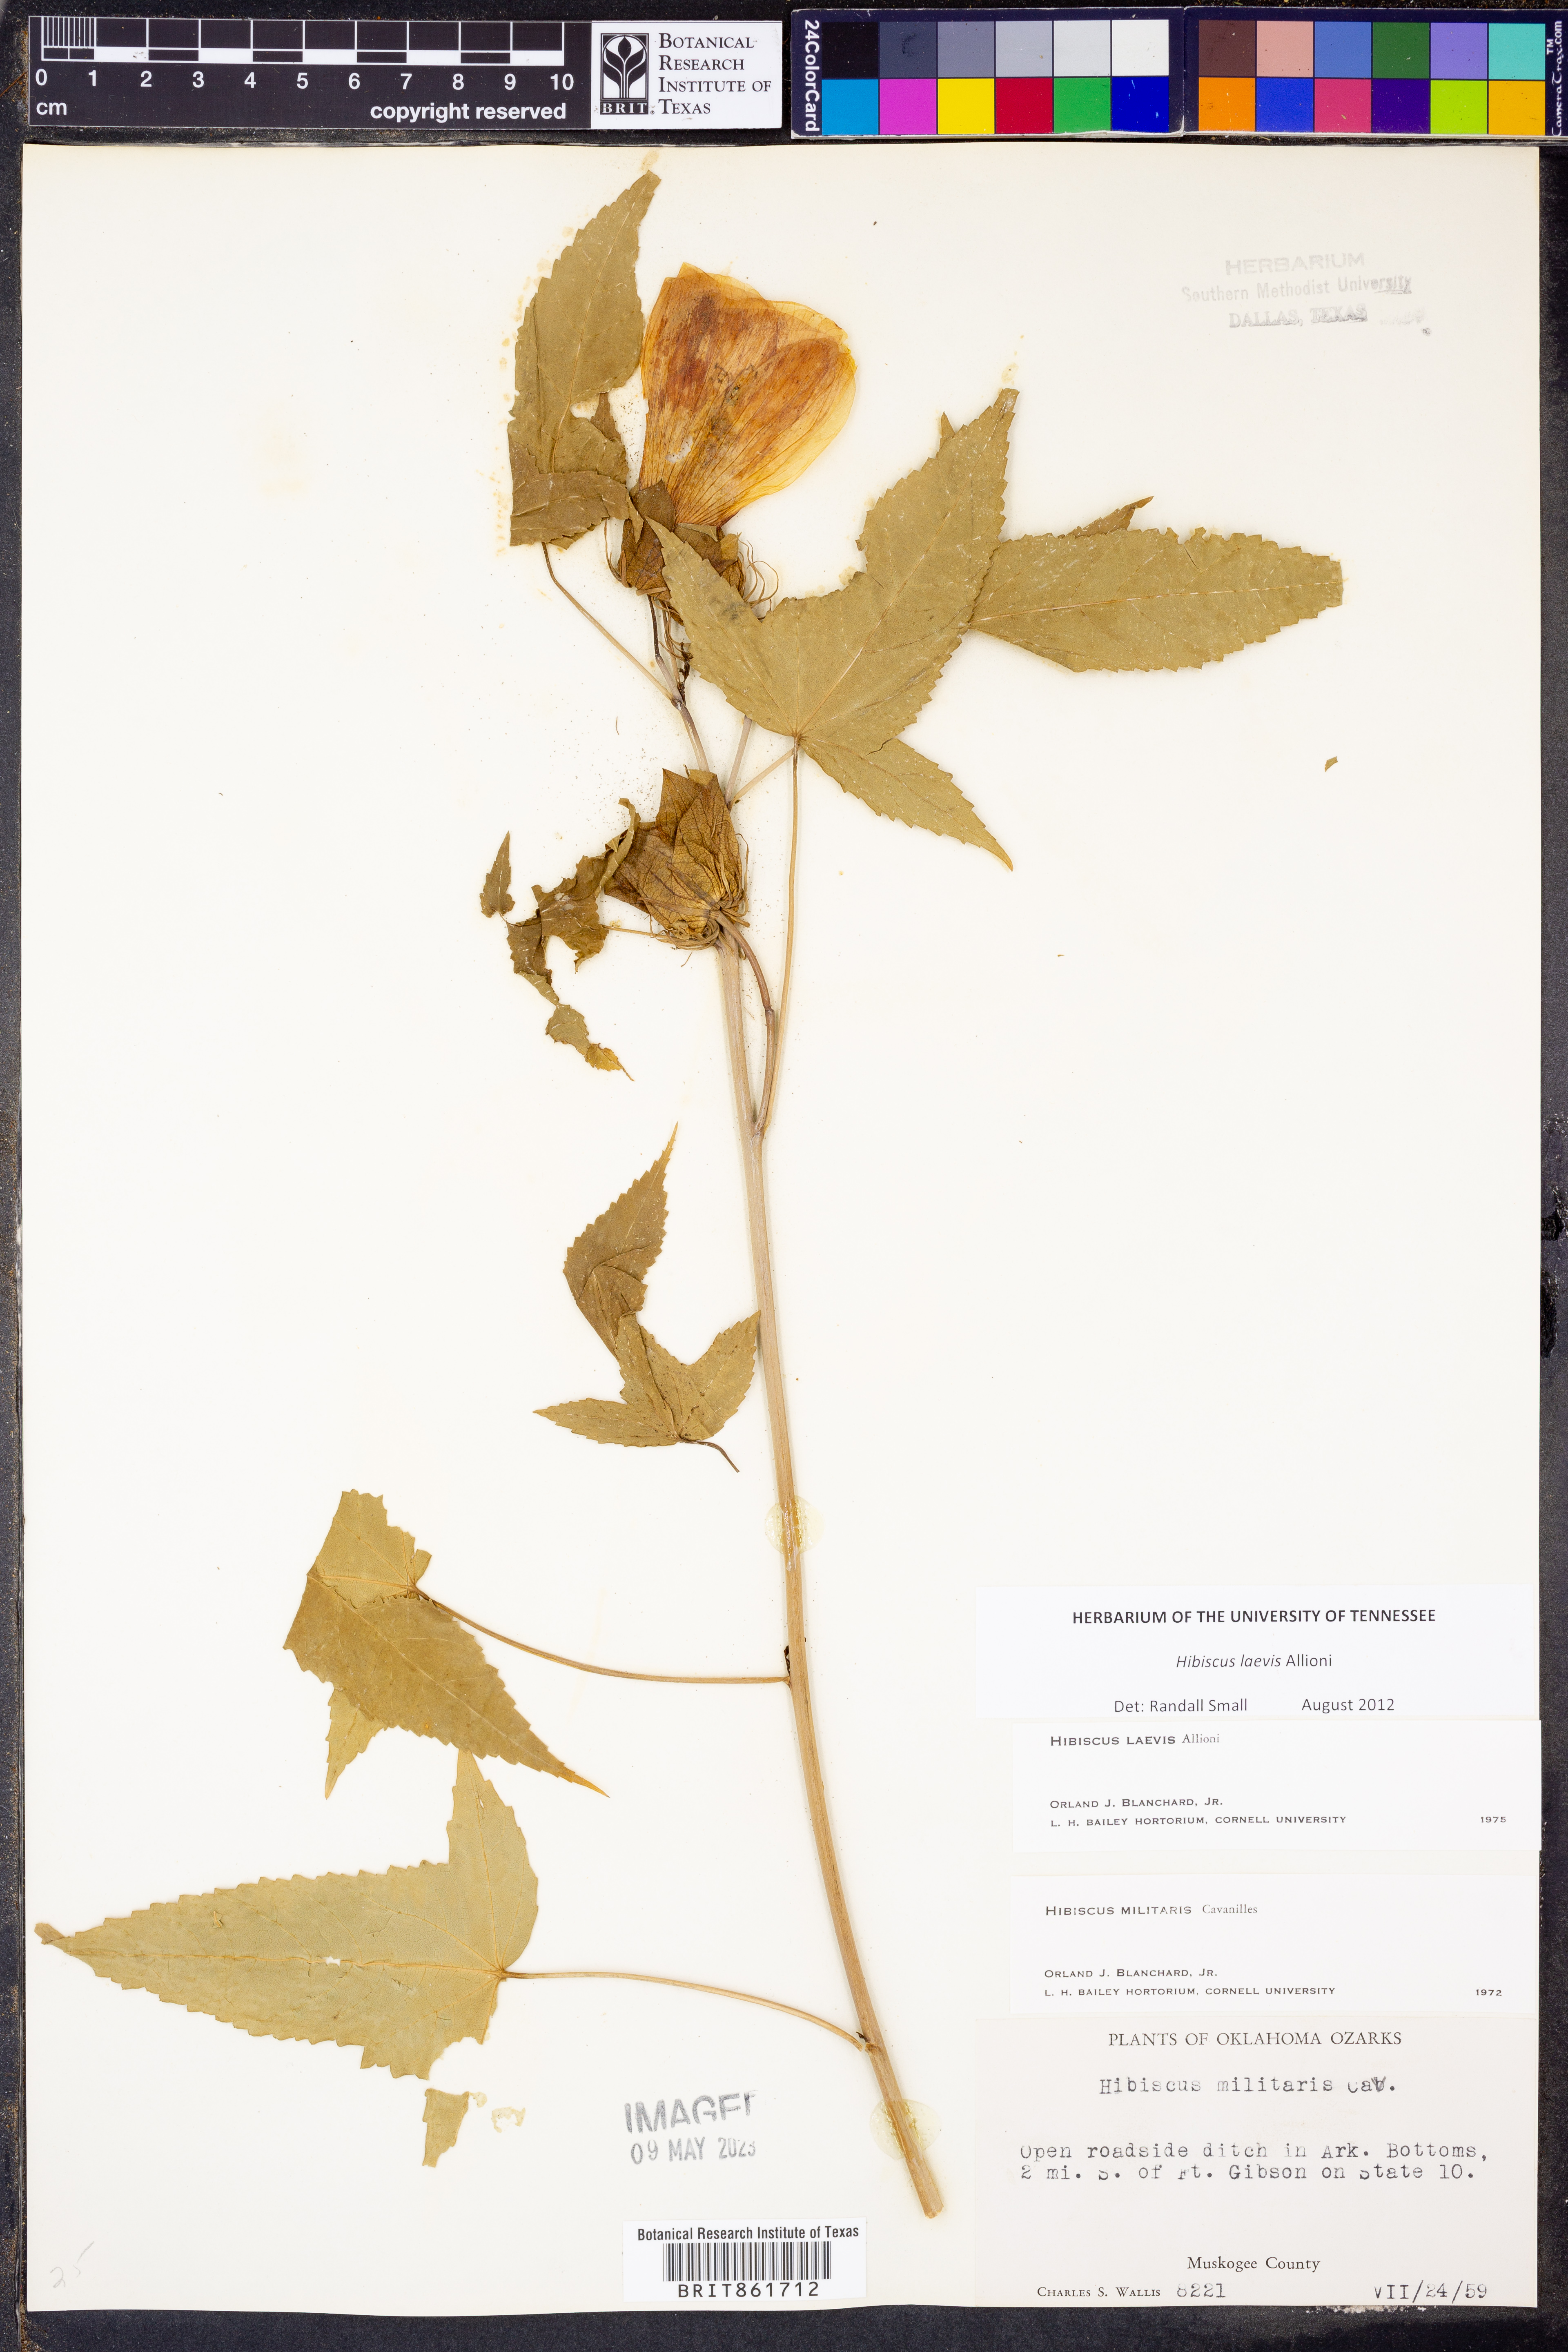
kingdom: Plantae
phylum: Tracheophyta
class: Magnoliopsida
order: Malvales
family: Malvaceae
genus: Hibiscus
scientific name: Hibiscus laevis
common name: Scarlet rose-mallow
